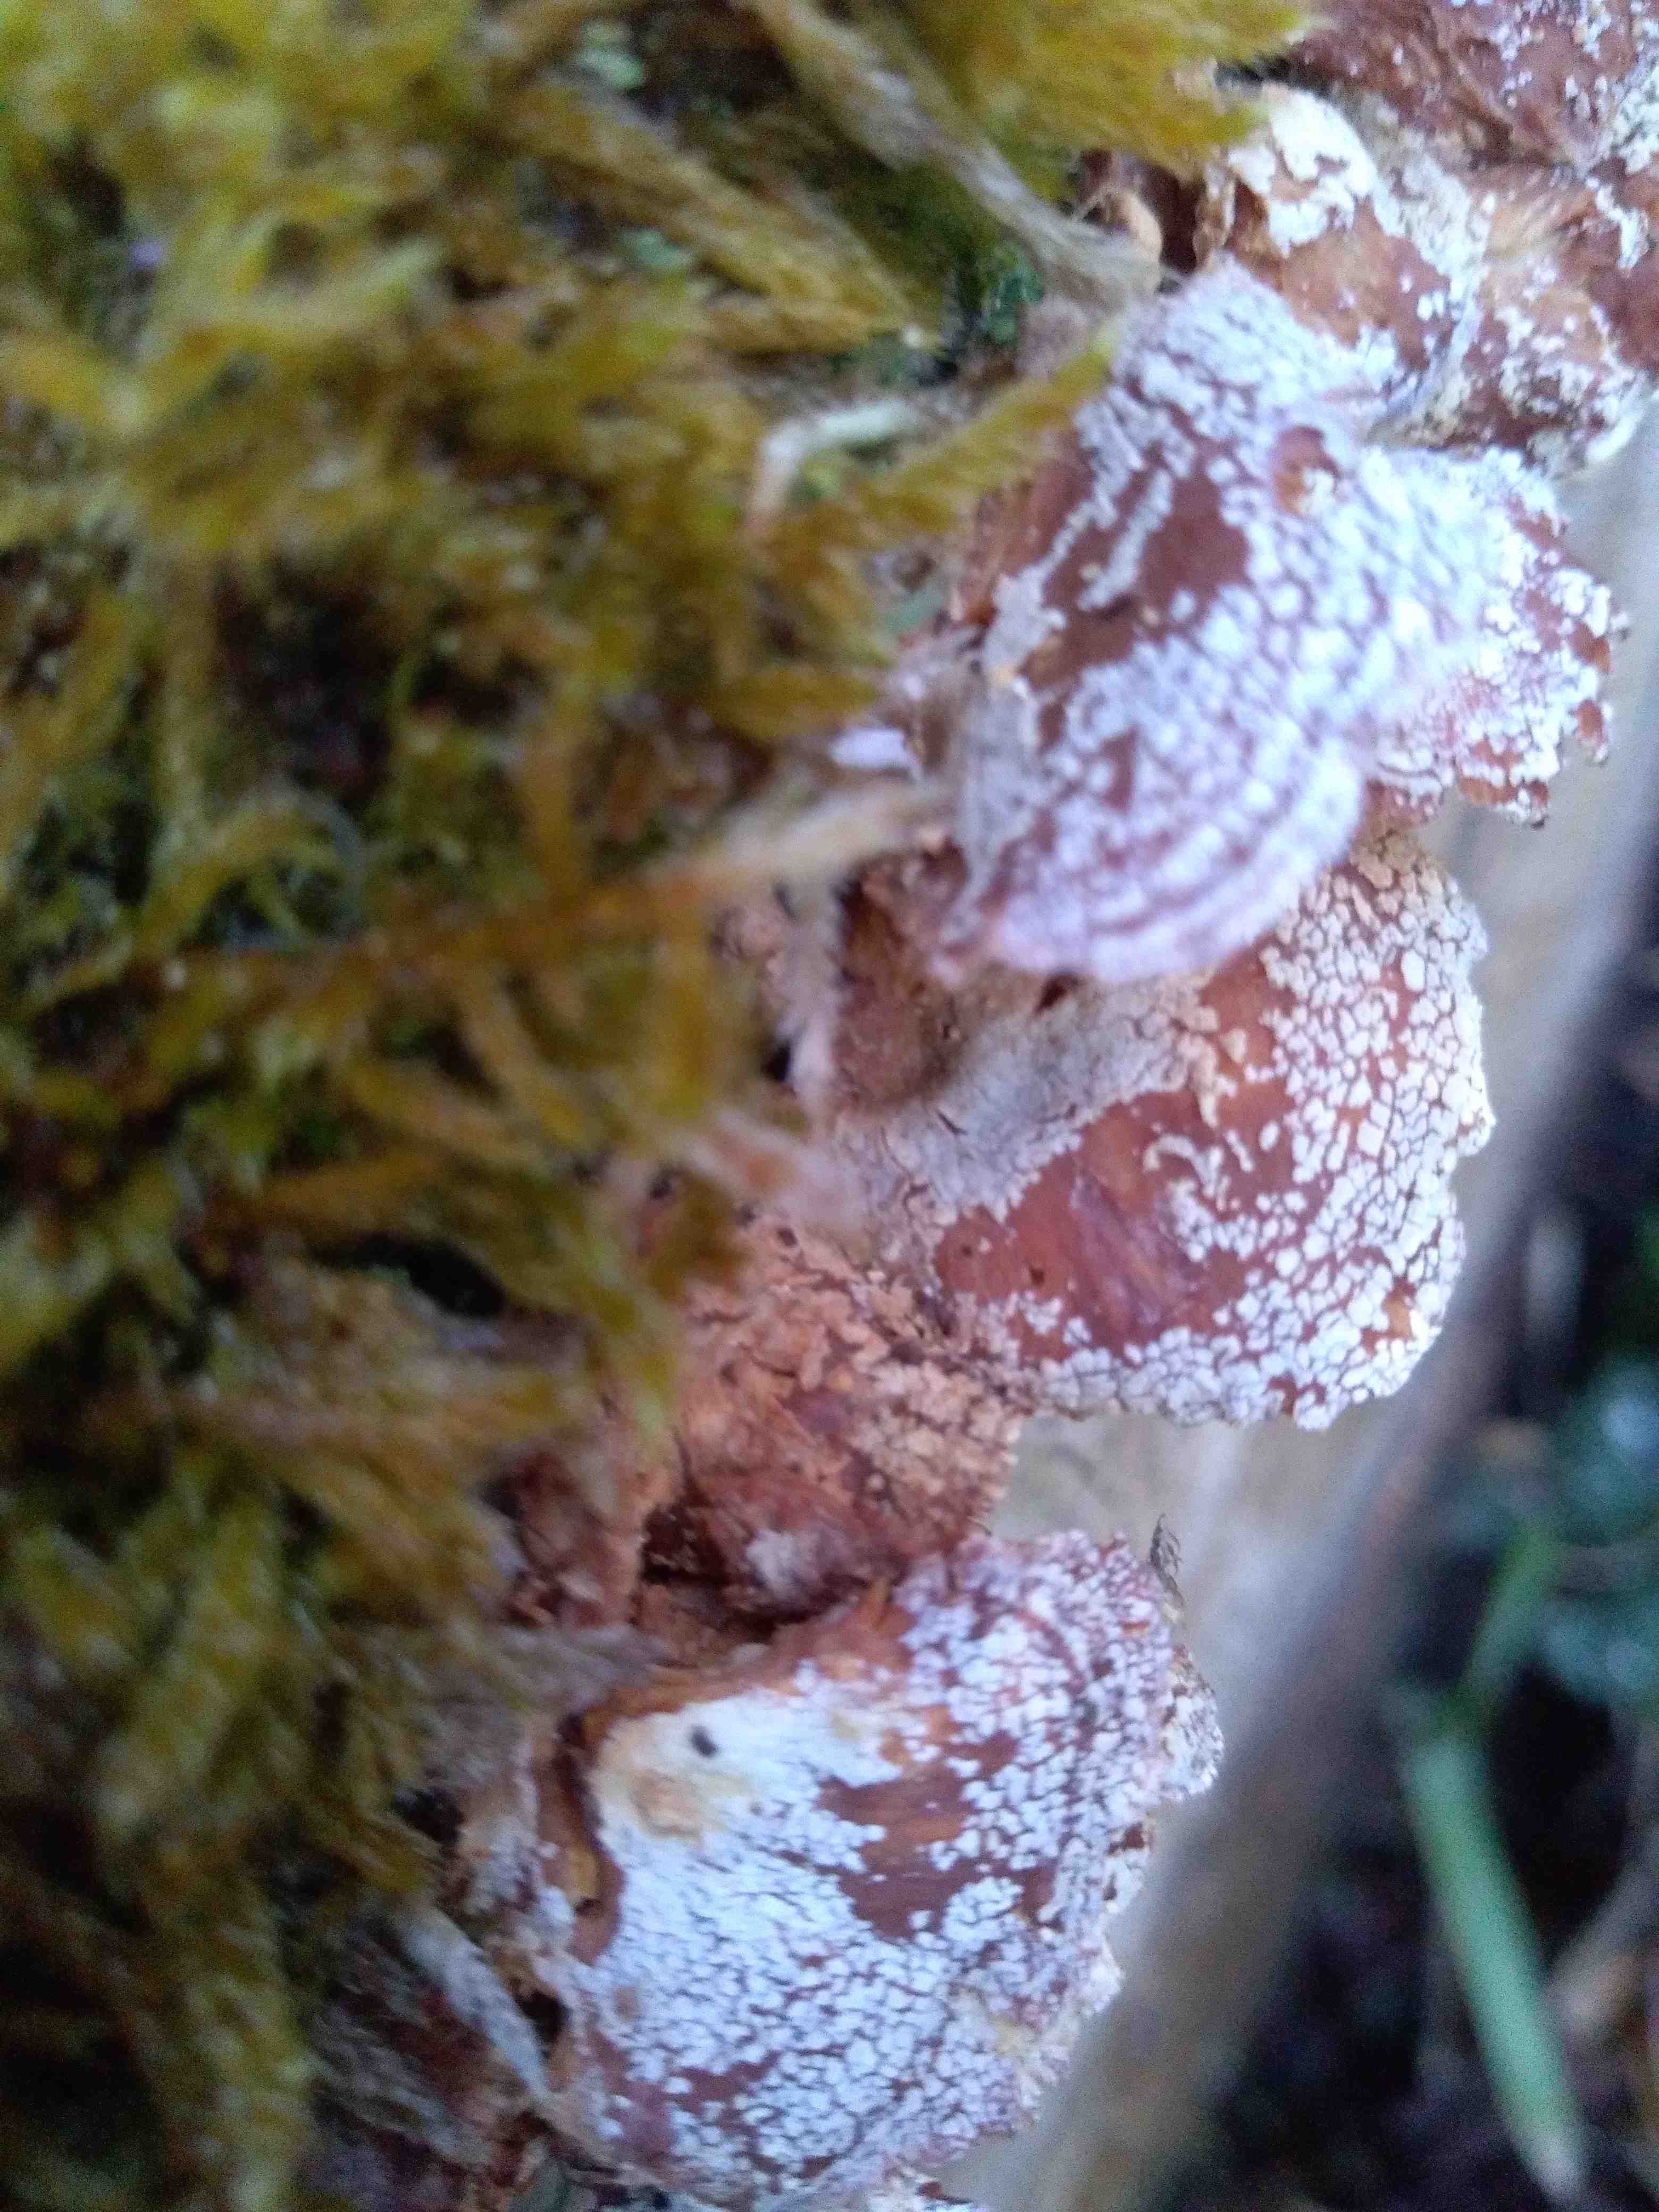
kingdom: Fungi
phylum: Basidiomycota
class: Agaricomycetes
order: Agaricales
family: Mycenaceae
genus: Panellus
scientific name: Panellus stipticus
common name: kliddet epaulethat
